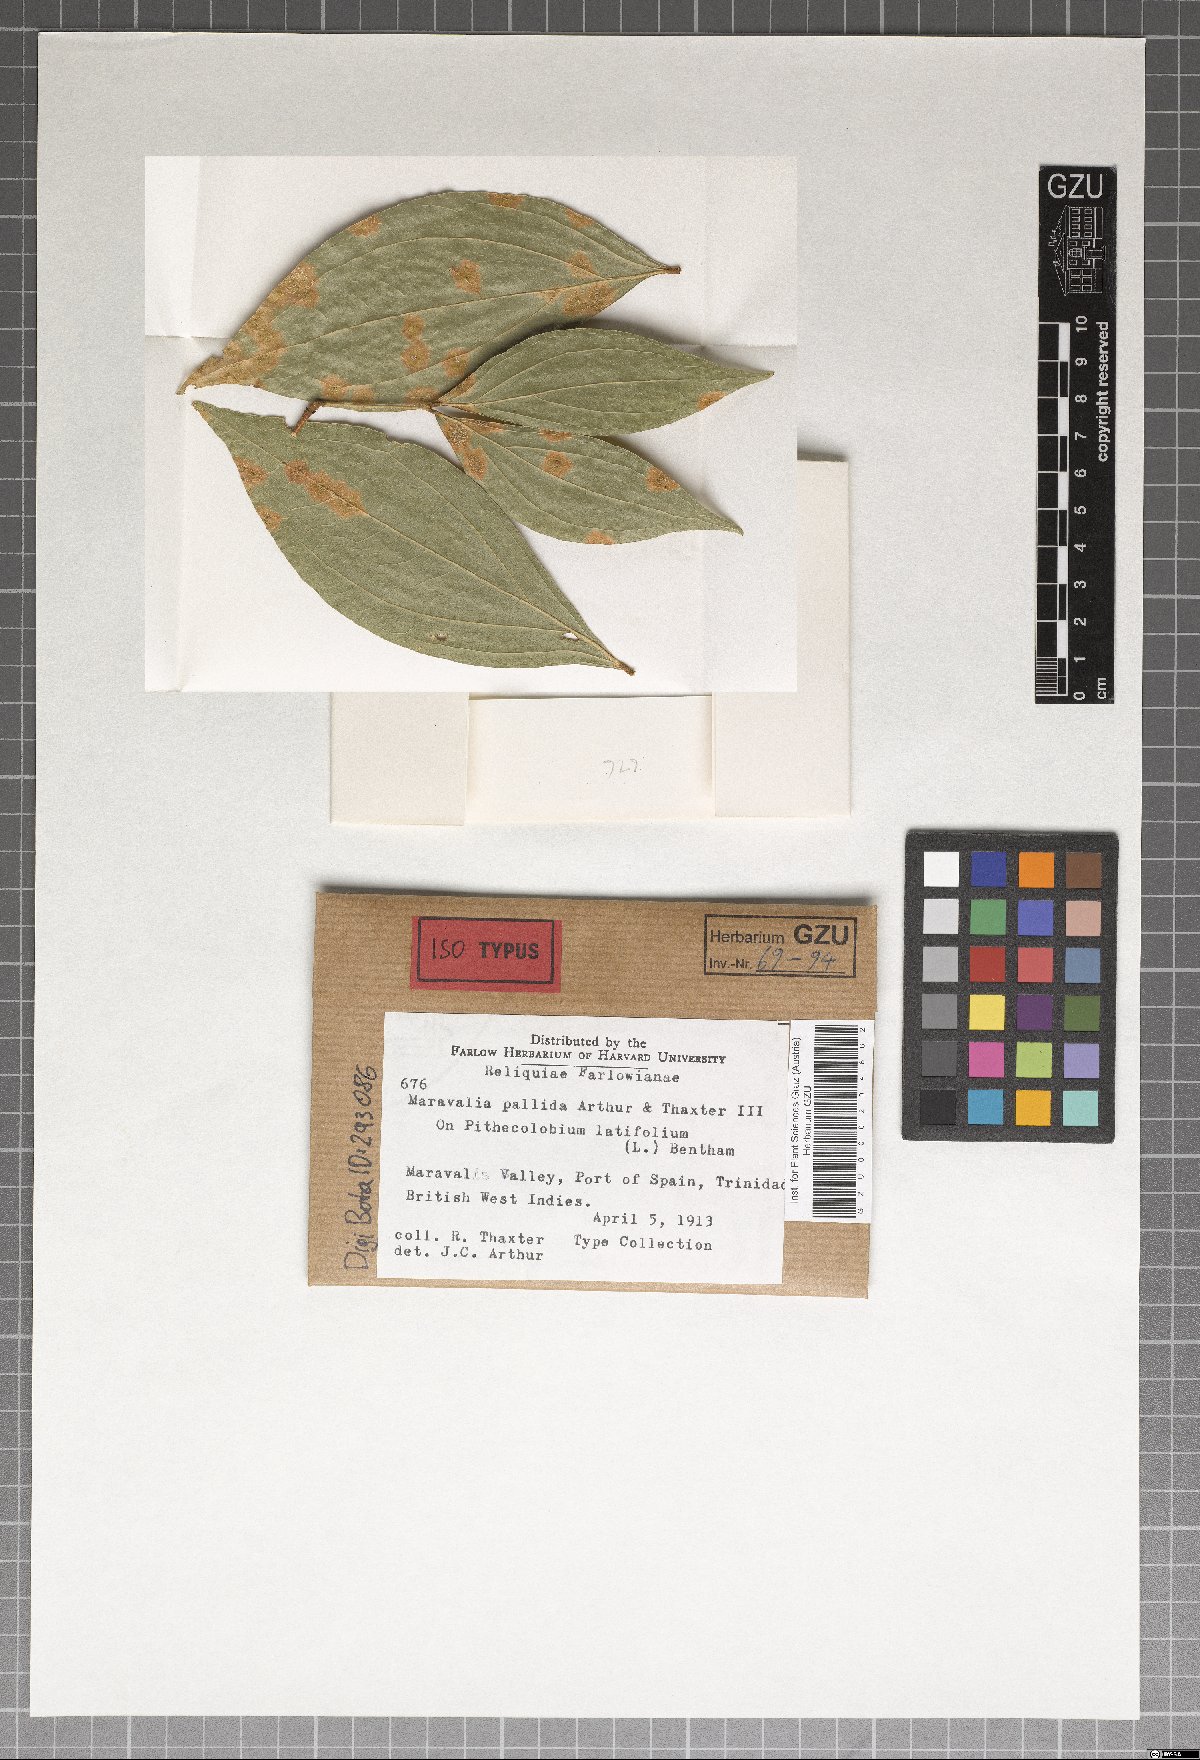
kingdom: Fungi
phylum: Basidiomycota
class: Pucciniomycetes
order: Pucciniales
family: Chaconiaceae
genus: Maravalia
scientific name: Maravalia pallida
